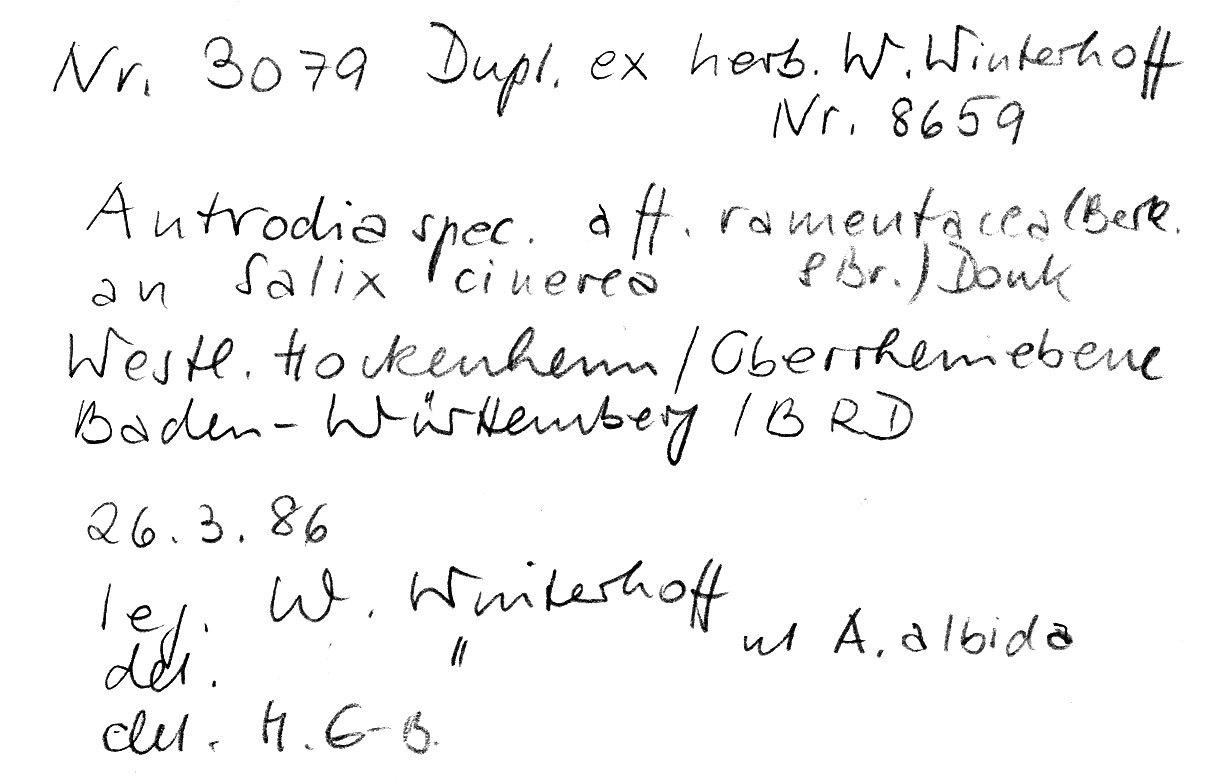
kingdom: Fungi
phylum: Basidiomycota
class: Agaricomycetes
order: Polyporales
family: Fomitopsidaceae
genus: Antrodia
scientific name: Antrodia ramentacea
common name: Honeycomb crust
